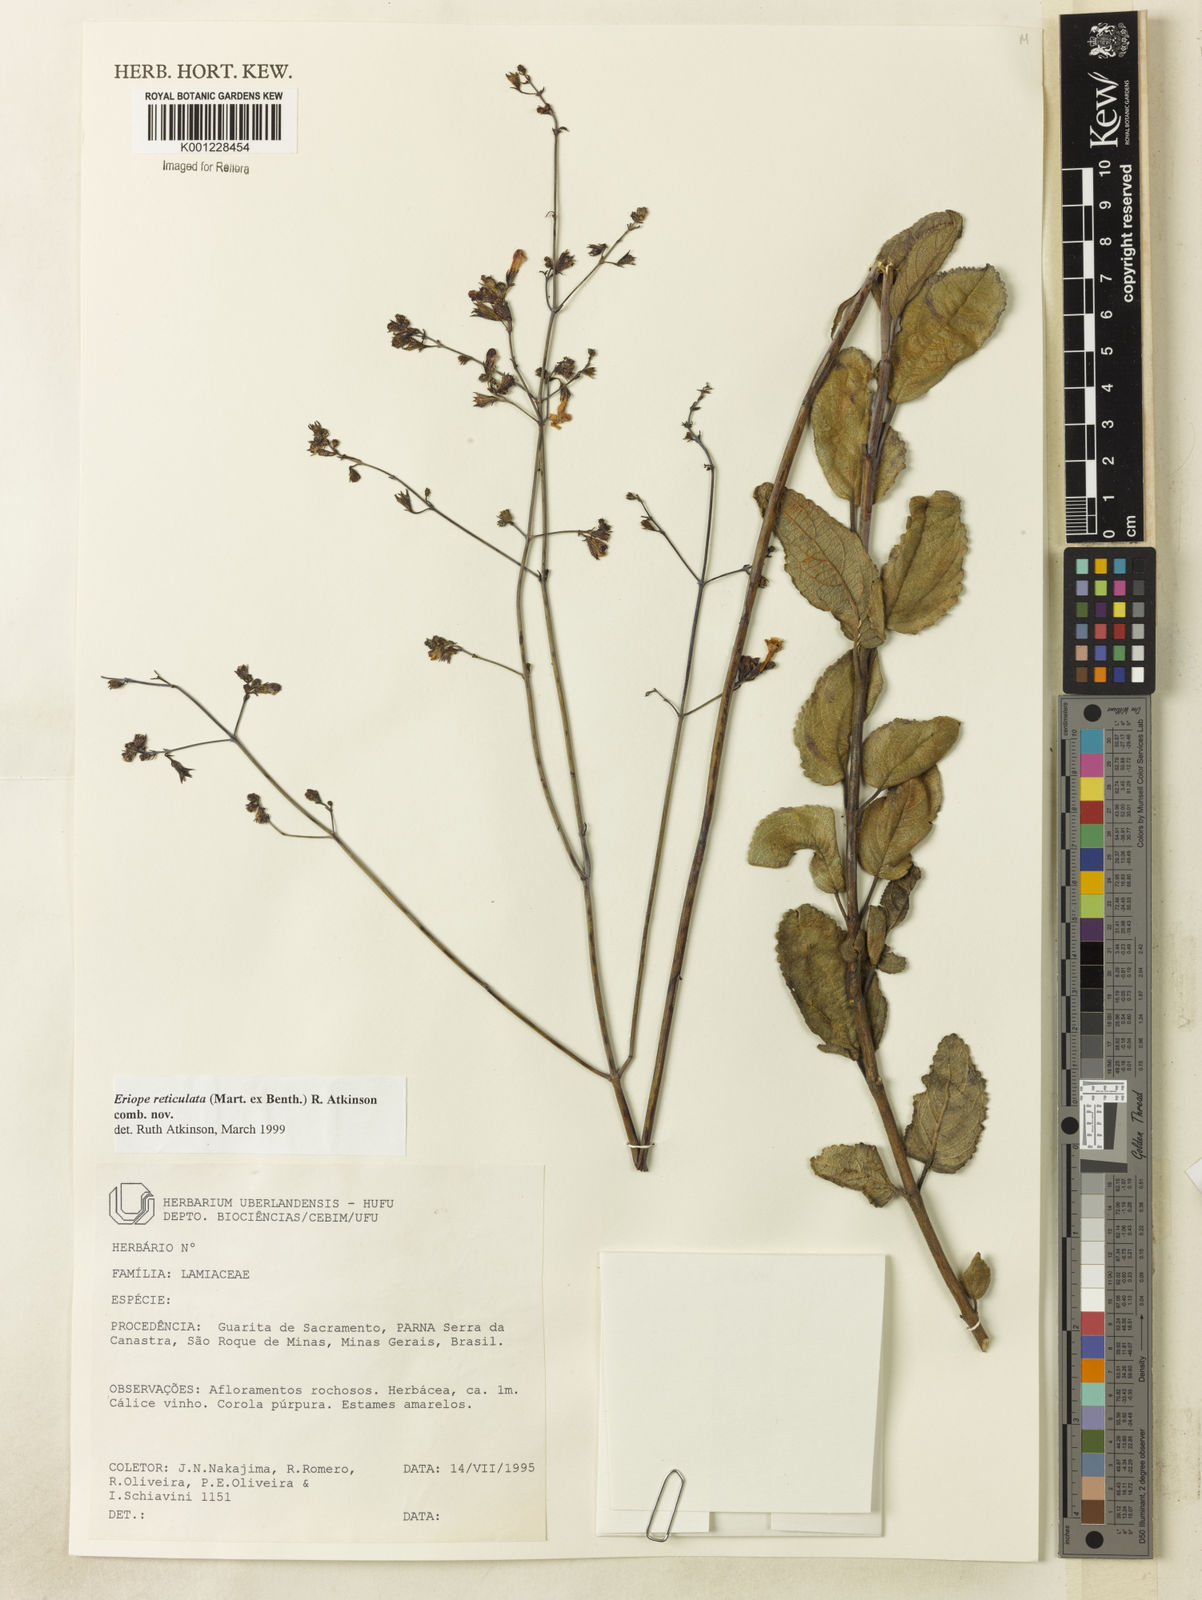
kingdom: Plantae
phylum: Tracheophyta
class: Magnoliopsida
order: Lamiales
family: Lamiaceae
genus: Hypenia
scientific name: Hypenia reticulata
